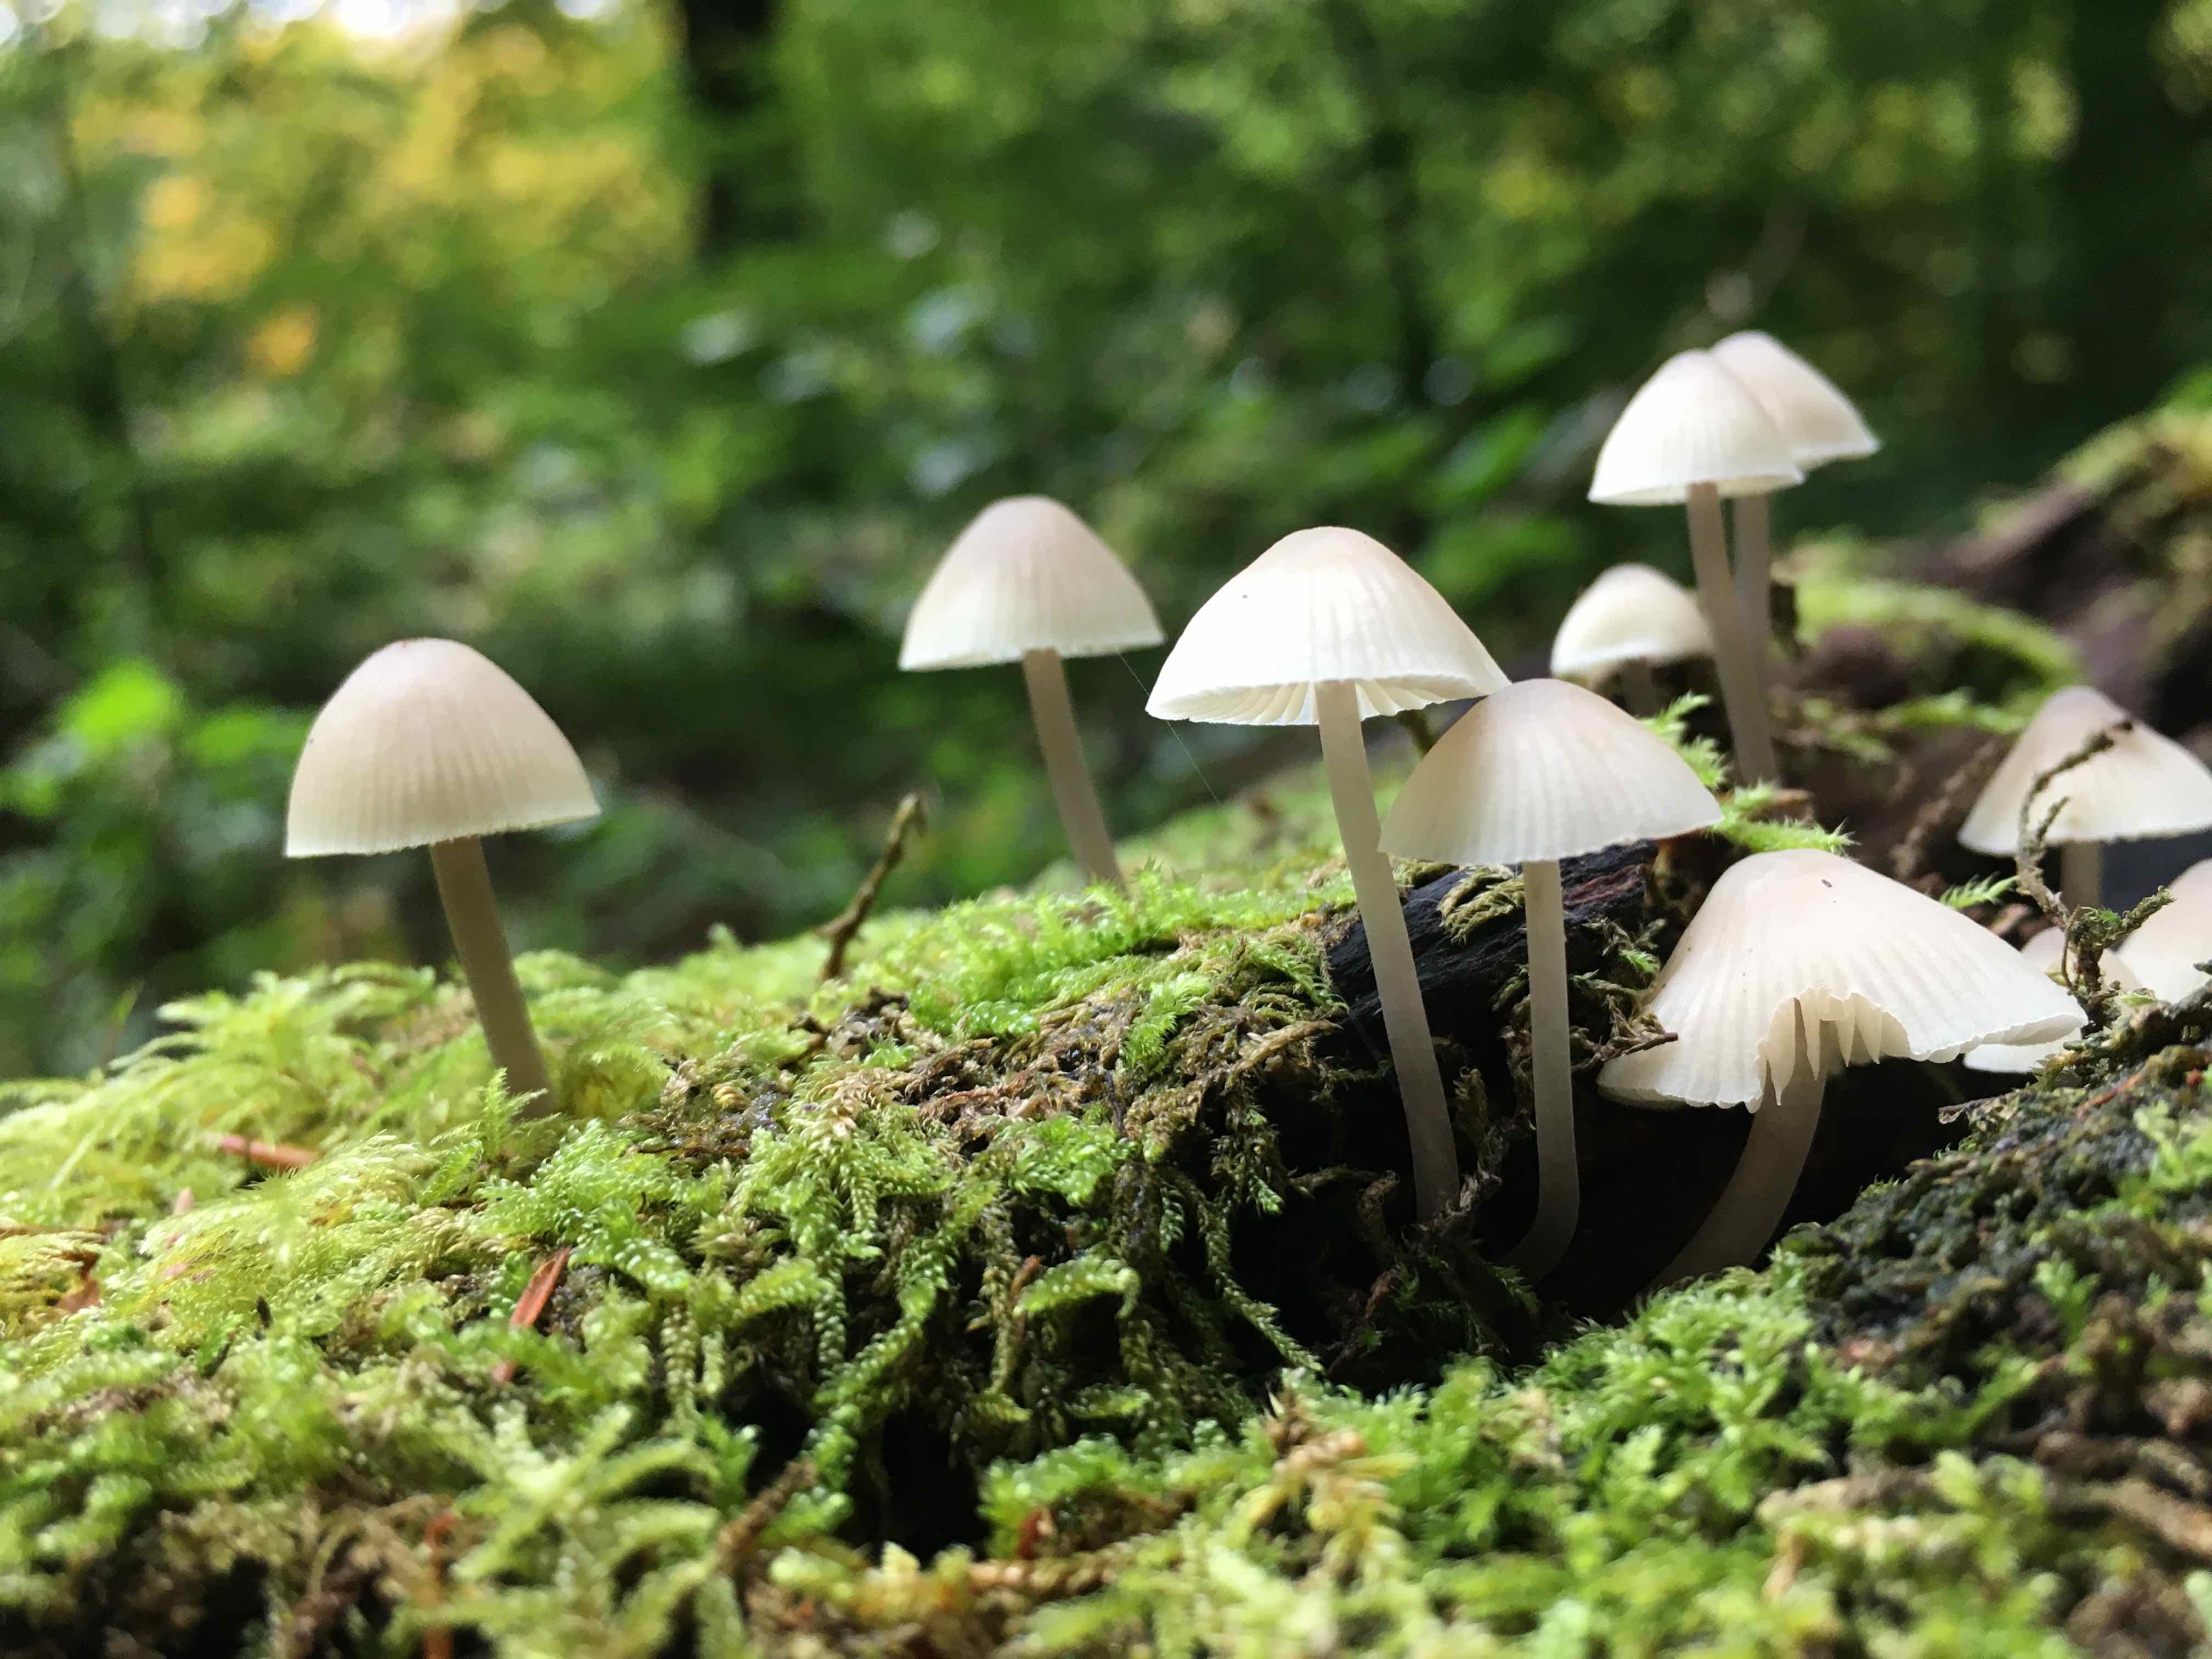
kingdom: Fungi
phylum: Basidiomycota
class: Agaricomycetes
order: Agaricales
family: Mycenaceae
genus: Mycena
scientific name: Mycena
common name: huesvamp
